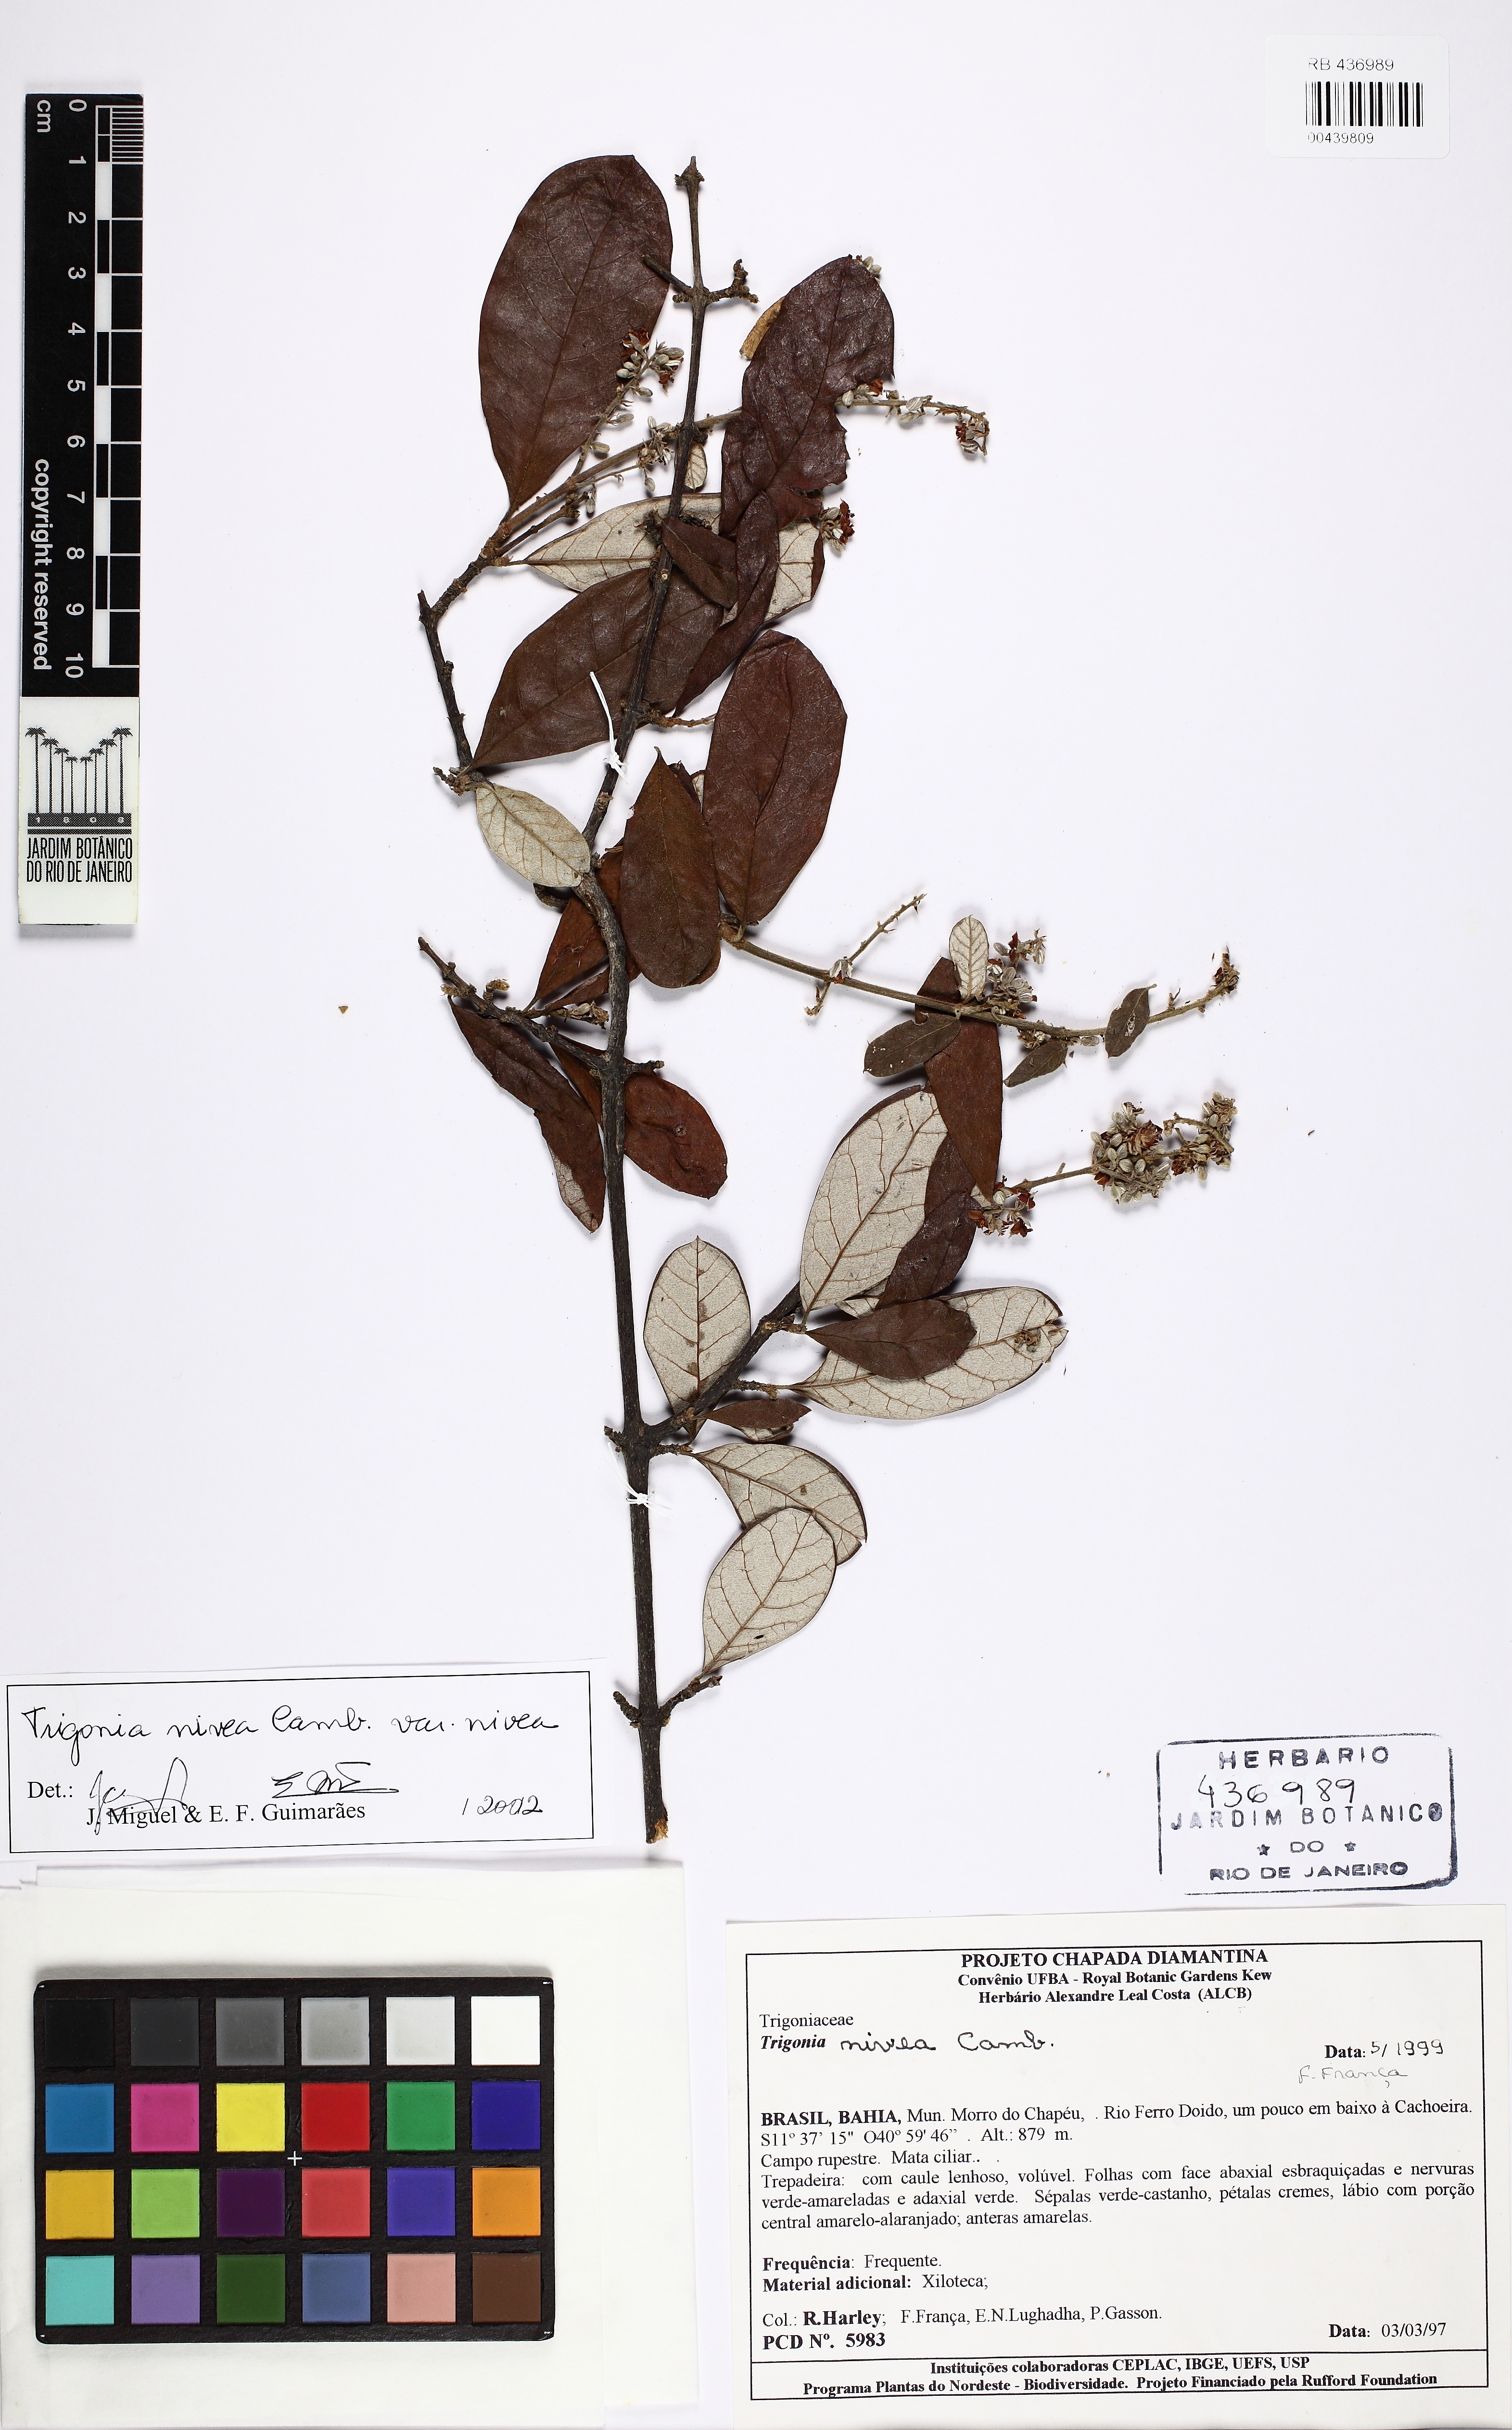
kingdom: Plantae
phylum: Tracheophyta
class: Magnoliopsida
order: Malpighiales
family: Trigoniaceae
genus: Trigonia
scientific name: Trigonia nivea
